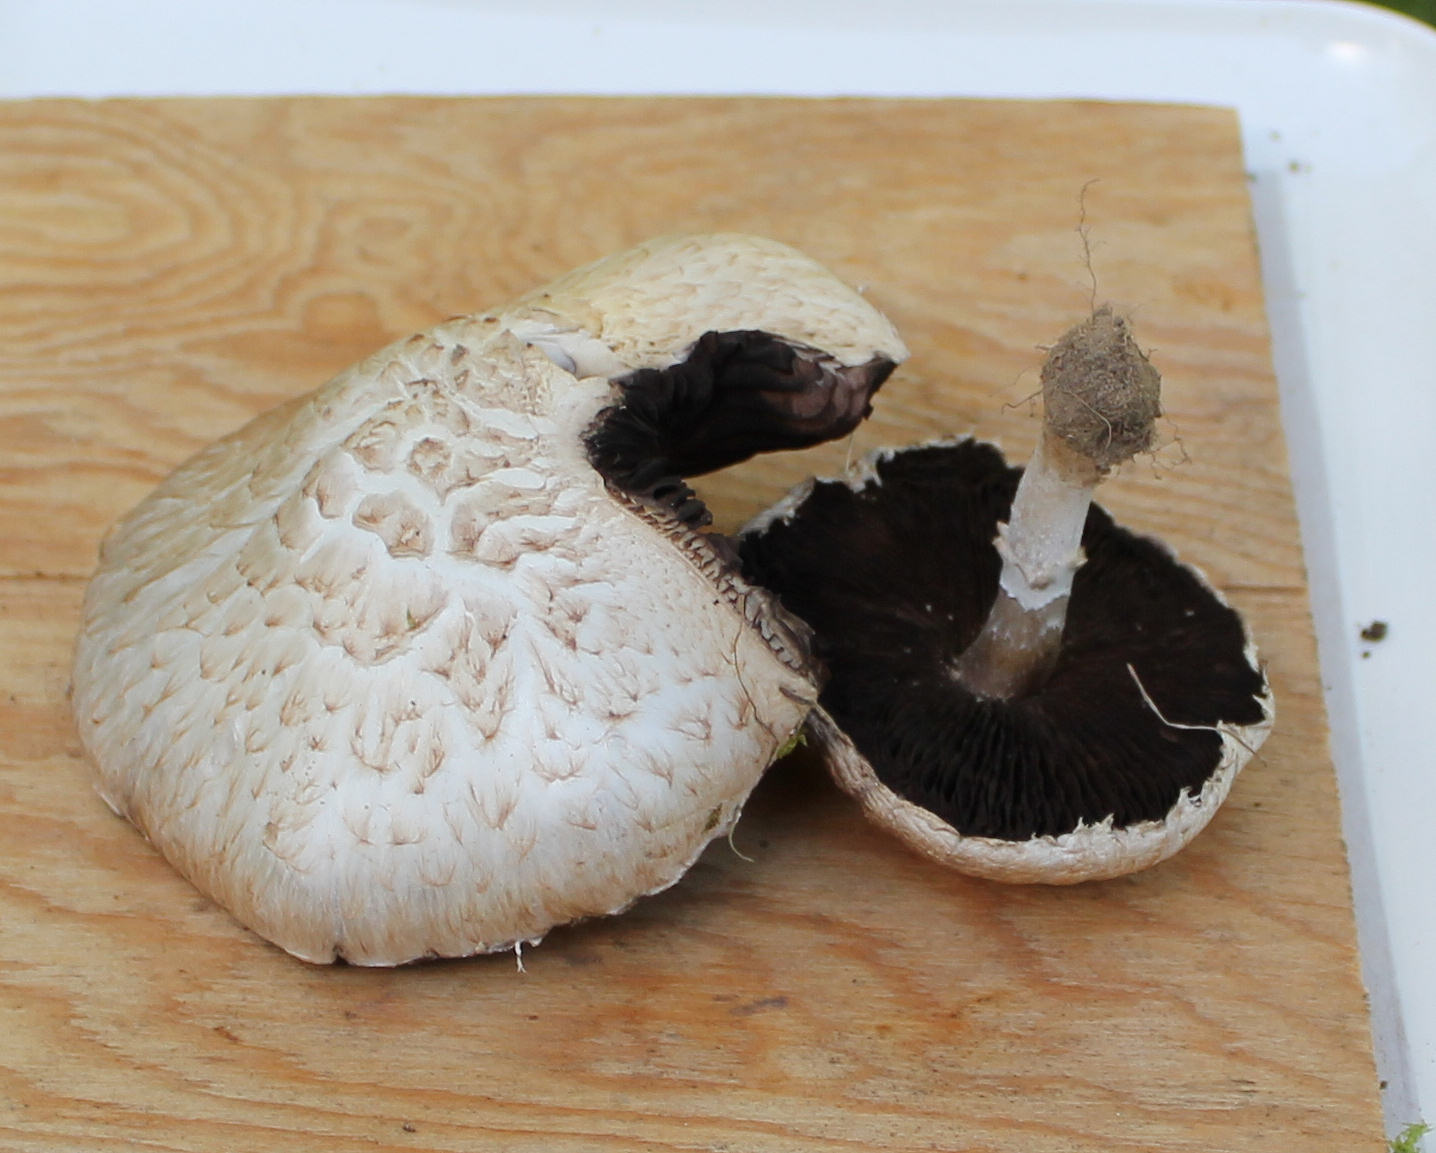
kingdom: Fungi
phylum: Basidiomycota
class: Agaricomycetes
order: Agaricales
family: Agaricaceae
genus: Agaricus
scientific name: Agaricus litoralis
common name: kyst-champignon
